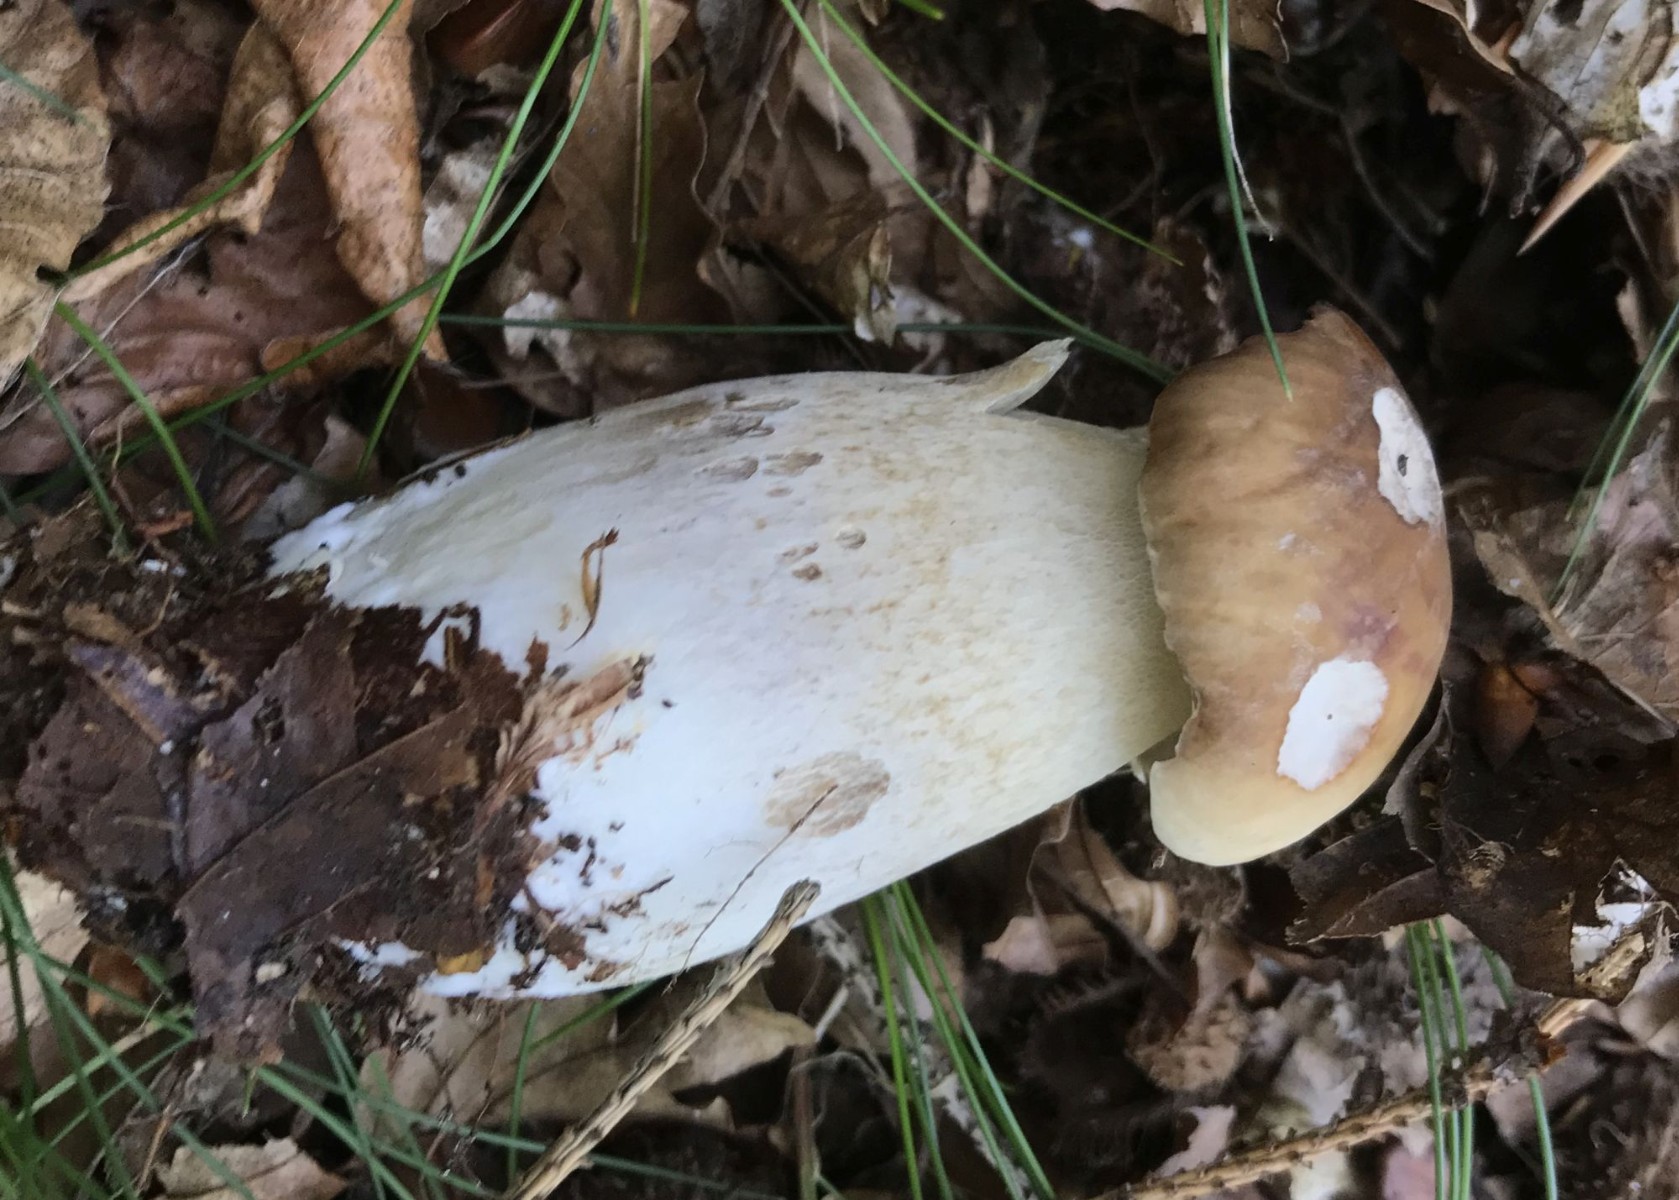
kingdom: Fungi
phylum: Basidiomycota
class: Agaricomycetes
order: Boletales
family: Boletaceae
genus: Boletus
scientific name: Boletus edulis
